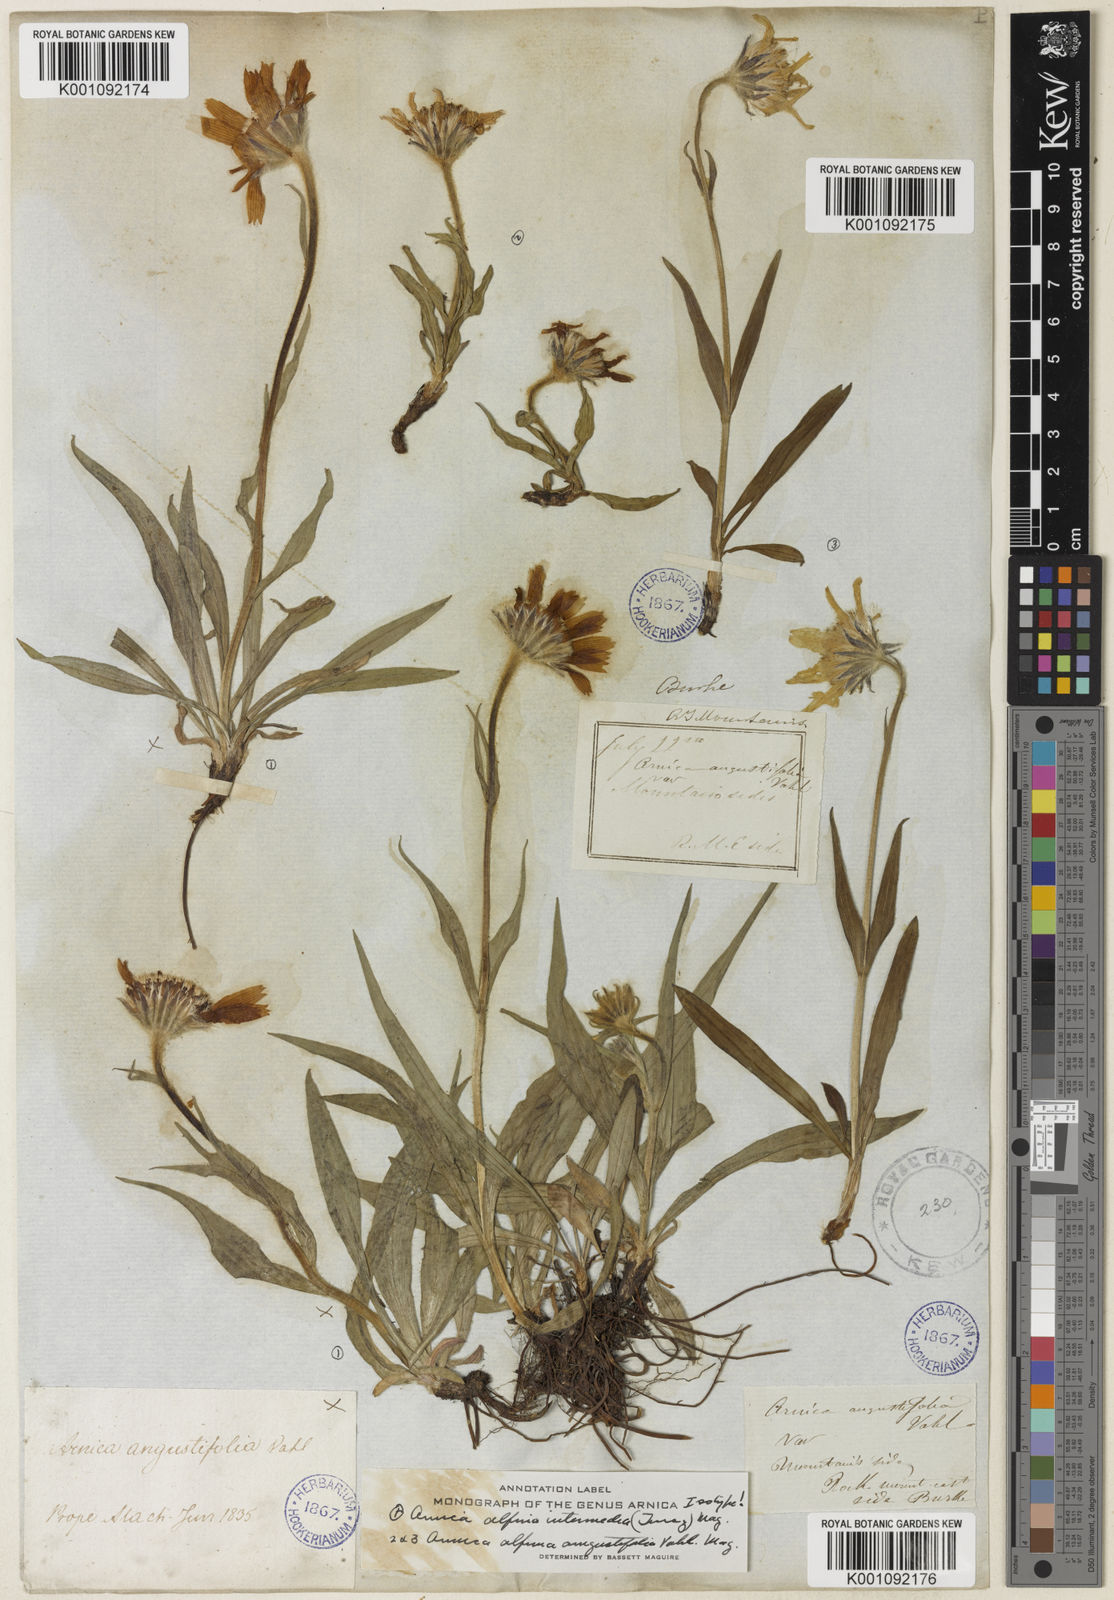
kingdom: Plantae
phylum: Tracheophyta
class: Magnoliopsida
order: Asterales
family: Asteraceae
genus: Arnica
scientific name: Arnica
